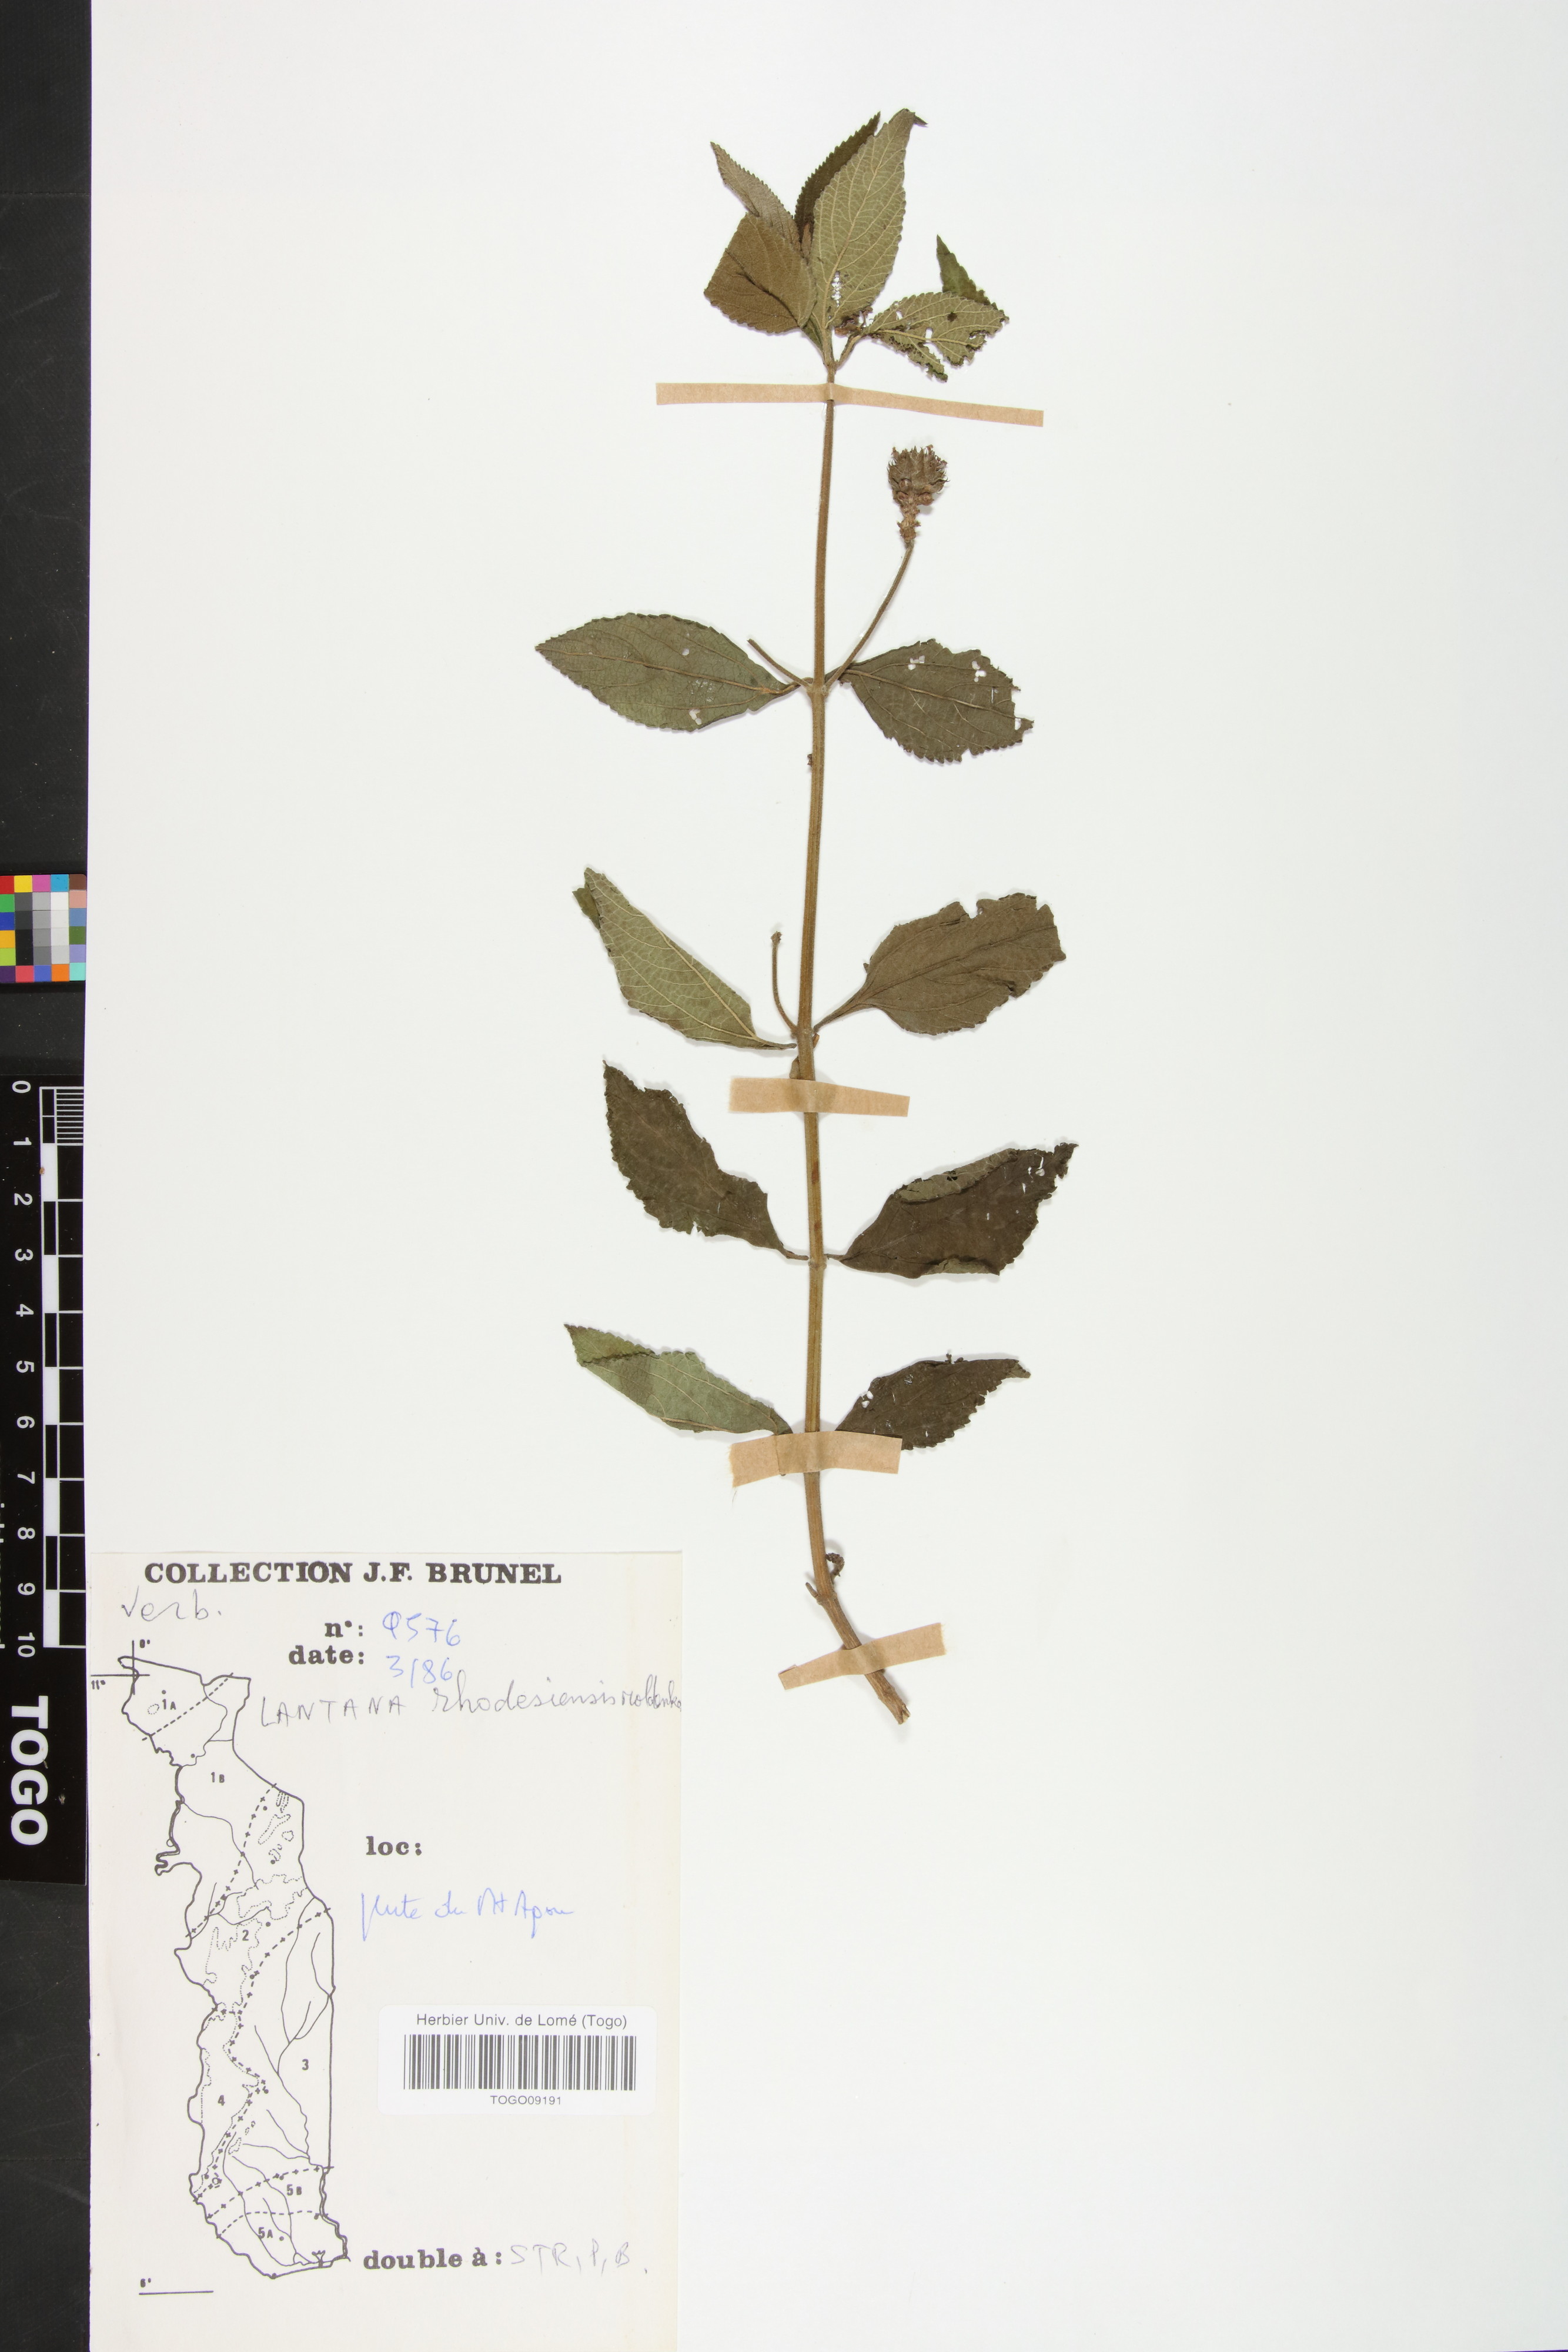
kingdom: Plantae
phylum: Tracheophyta
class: Magnoliopsida
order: Lamiales
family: Verbenaceae
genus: Lantana
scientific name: Lantana ukambensis
